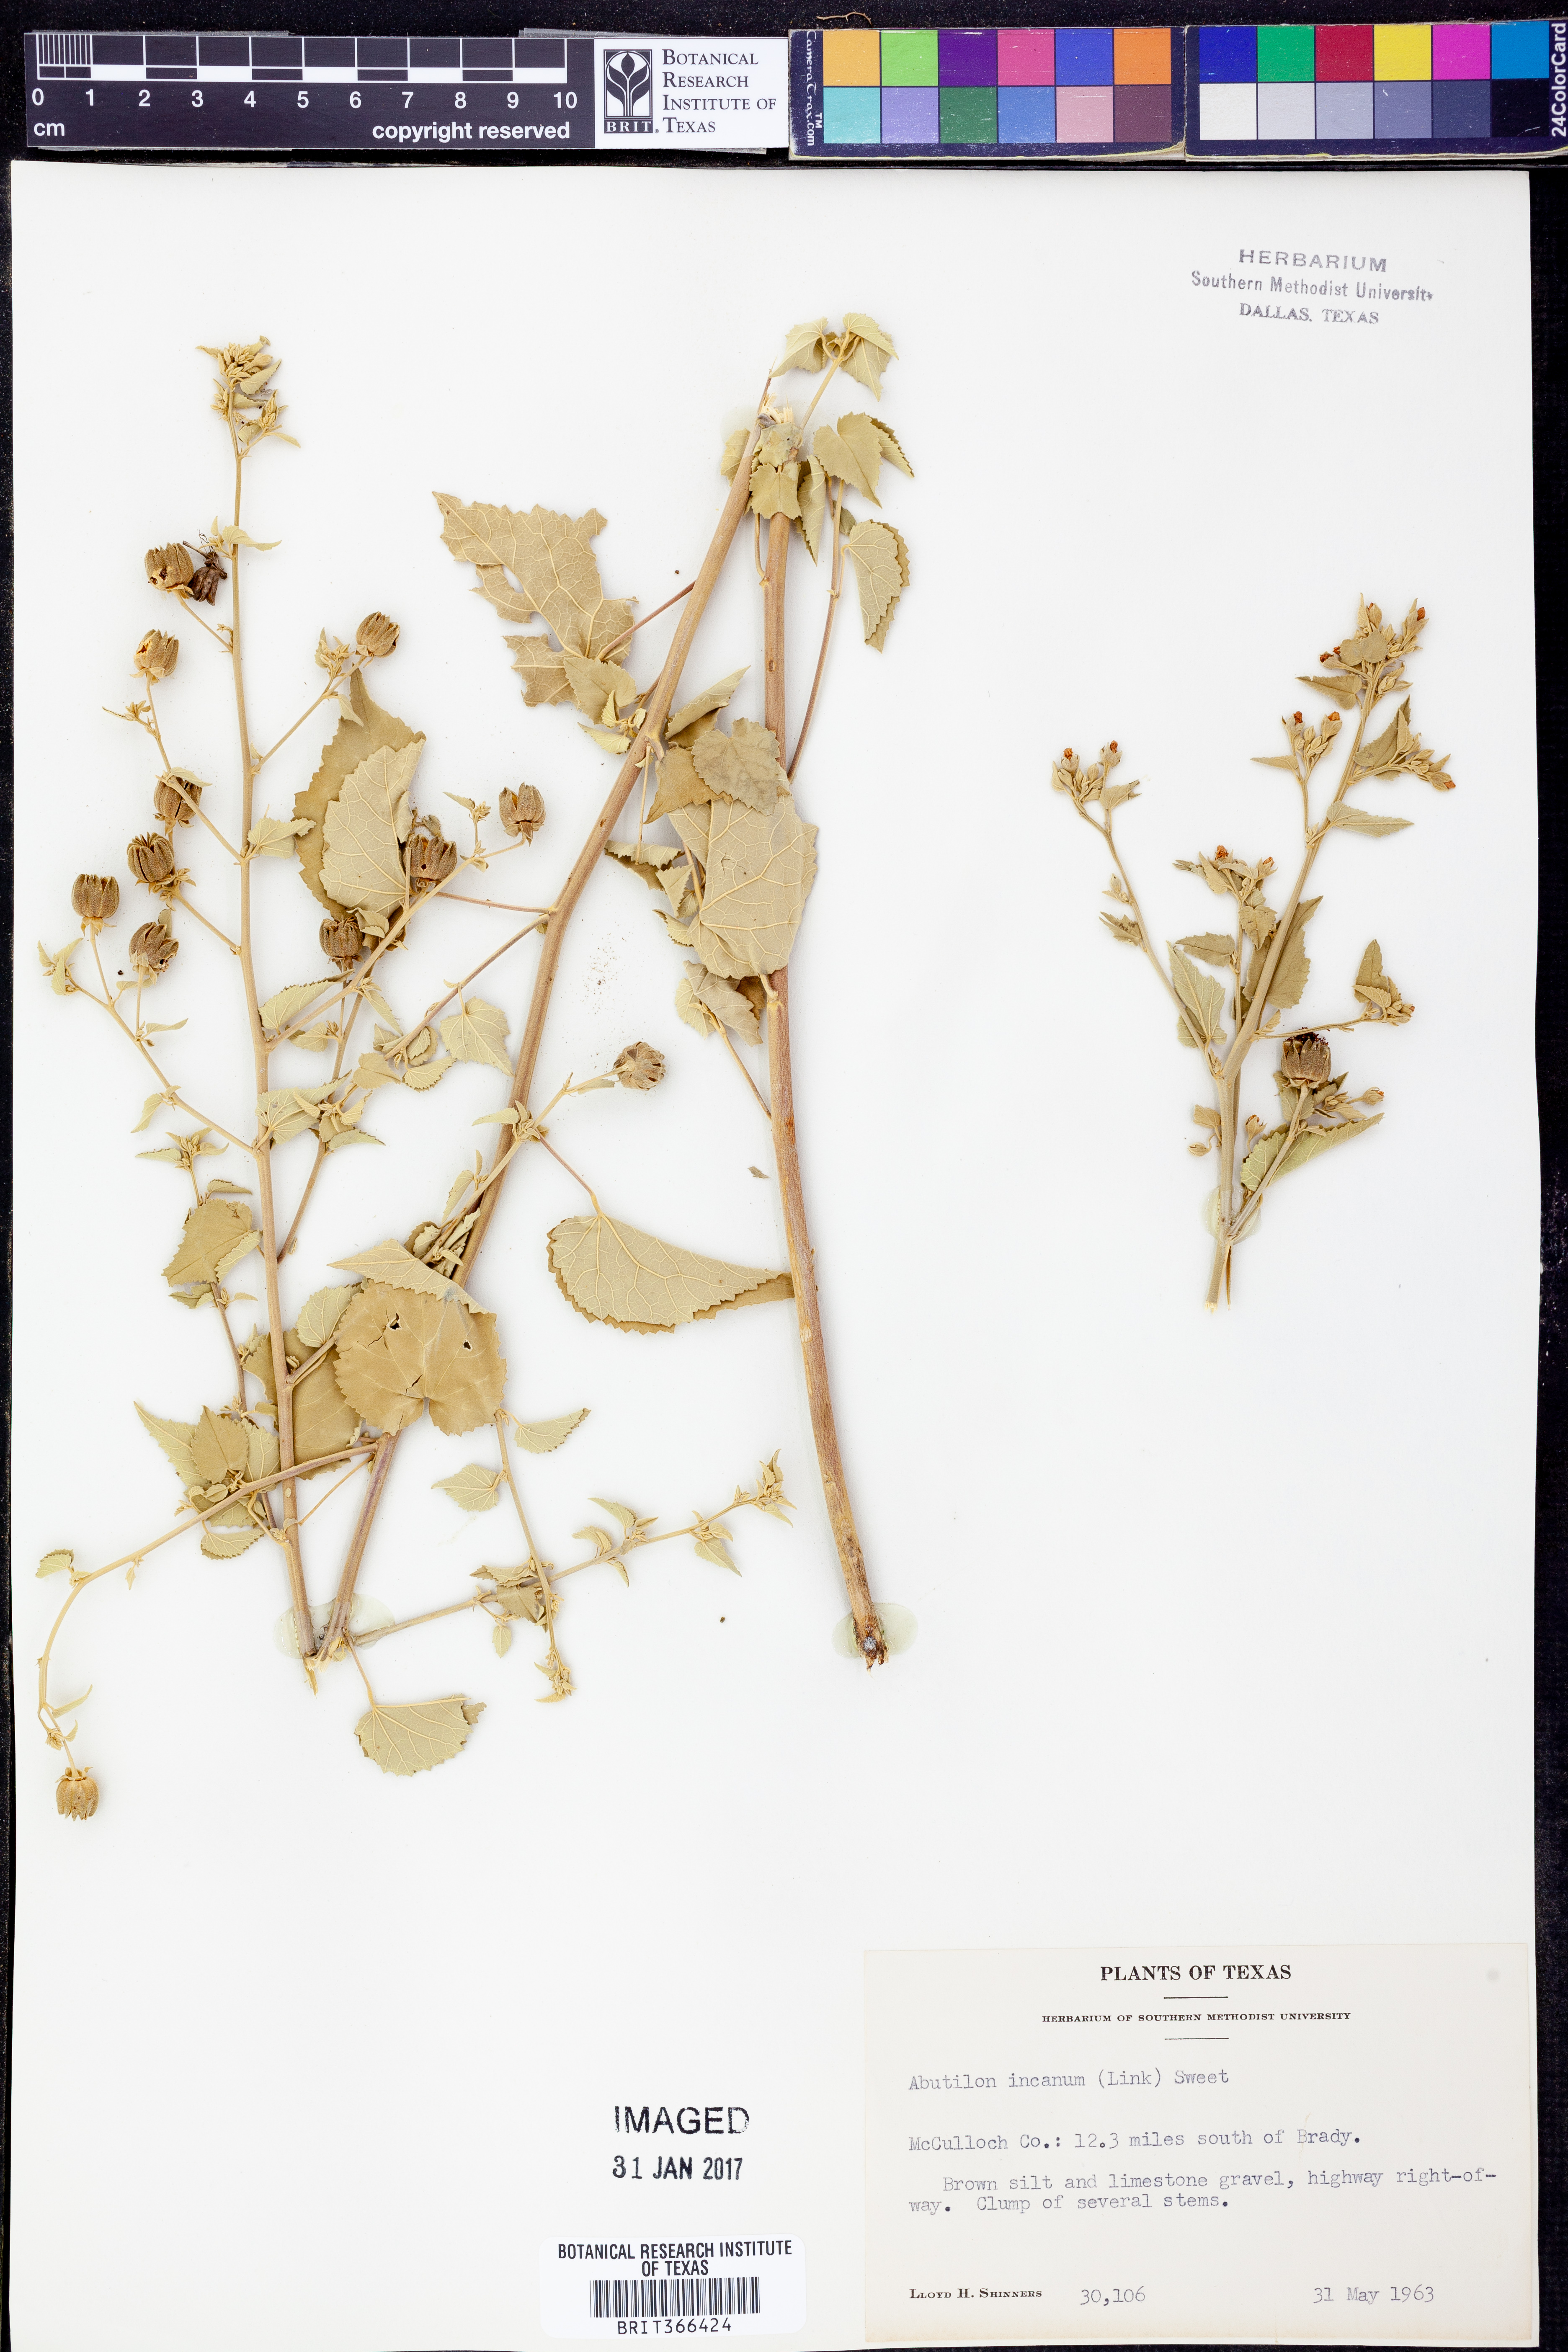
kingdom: Plantae
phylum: Tracheophyta
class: Magnoliopsida
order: Malvales
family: Malvaceae
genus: Abutilon
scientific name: Abutilon incanum
